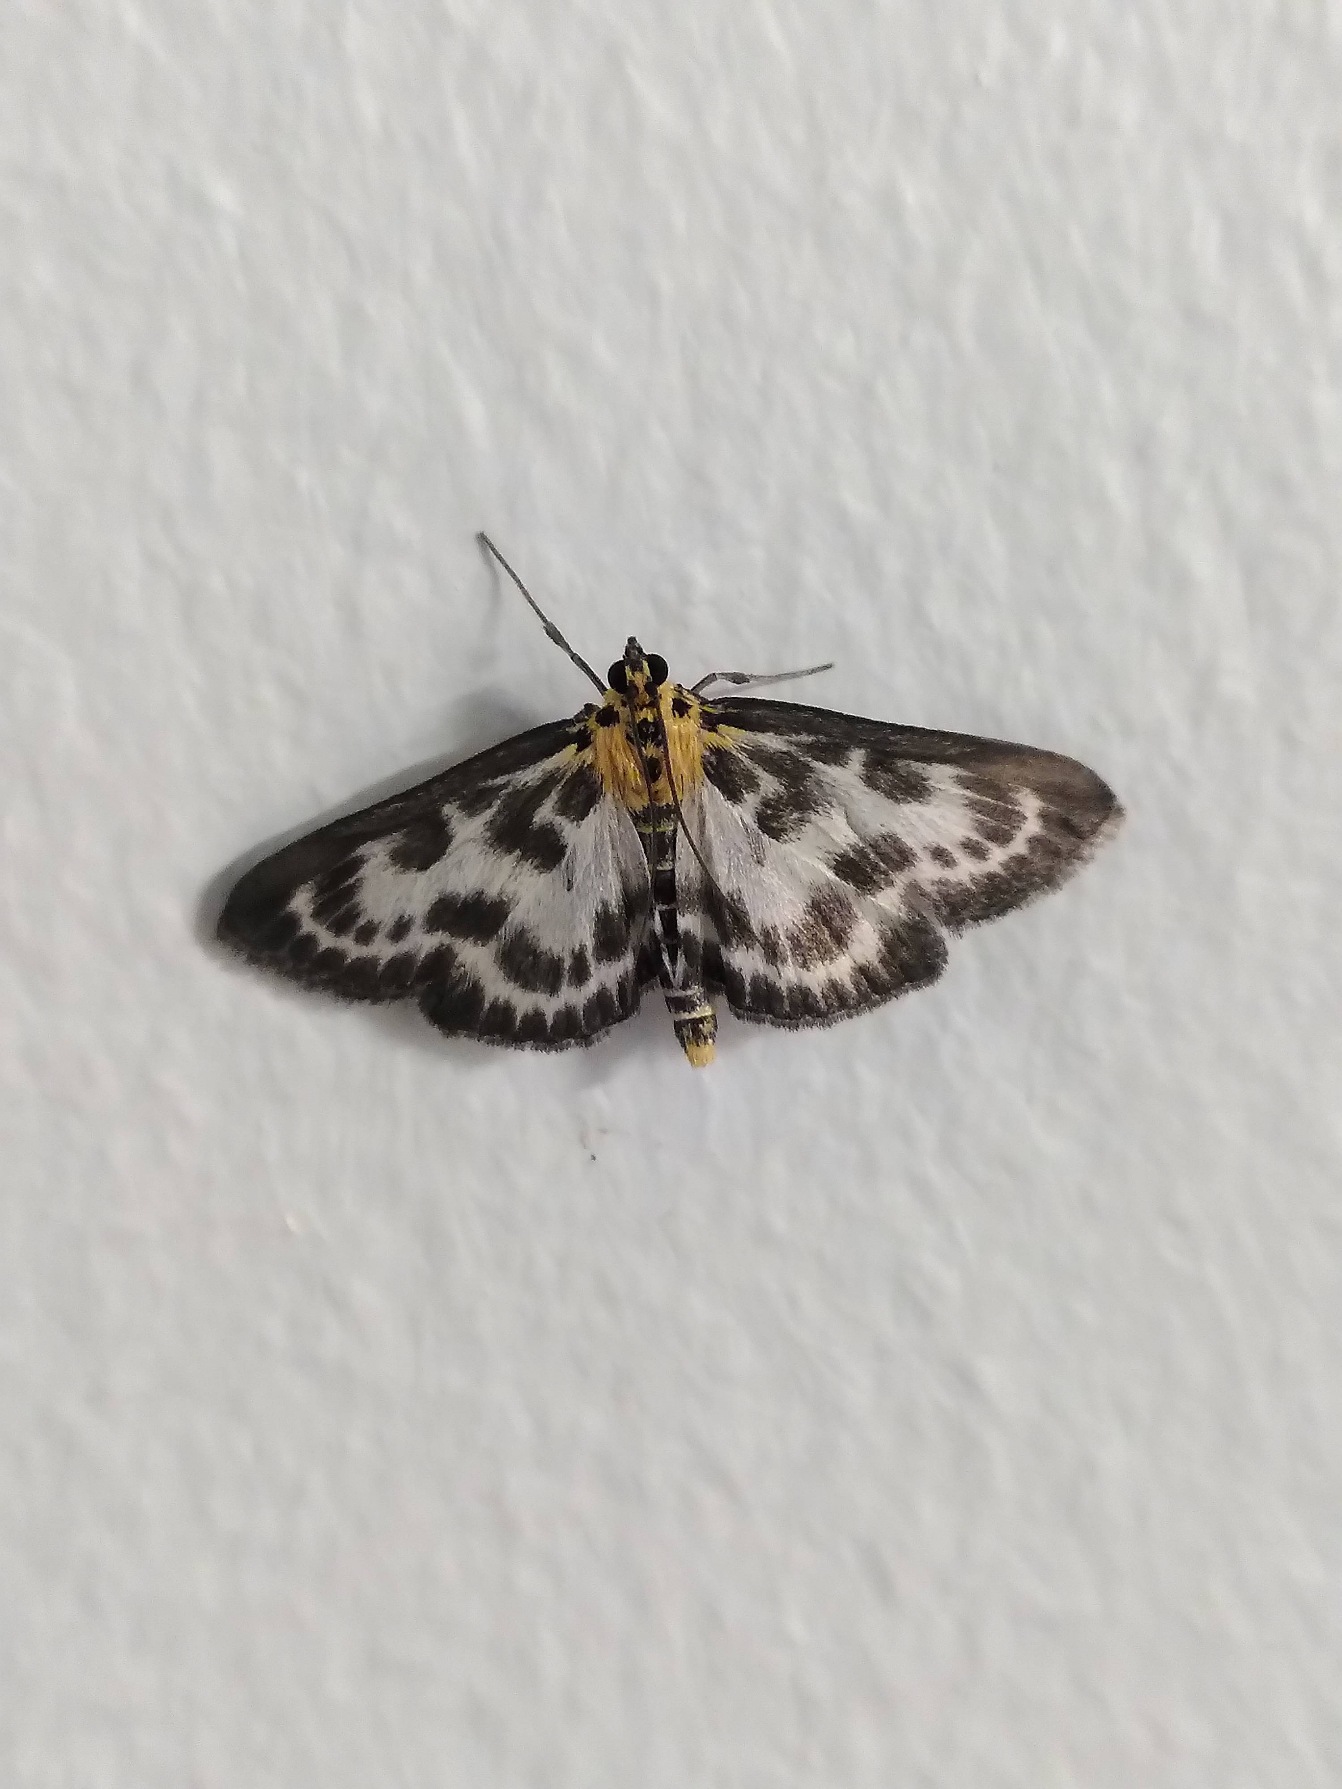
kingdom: Animalia
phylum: Arthropoda
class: Insecta
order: Lepidoptera
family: Crambidae
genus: Anania
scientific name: Anania hortulata
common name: Nældehalvmøl
